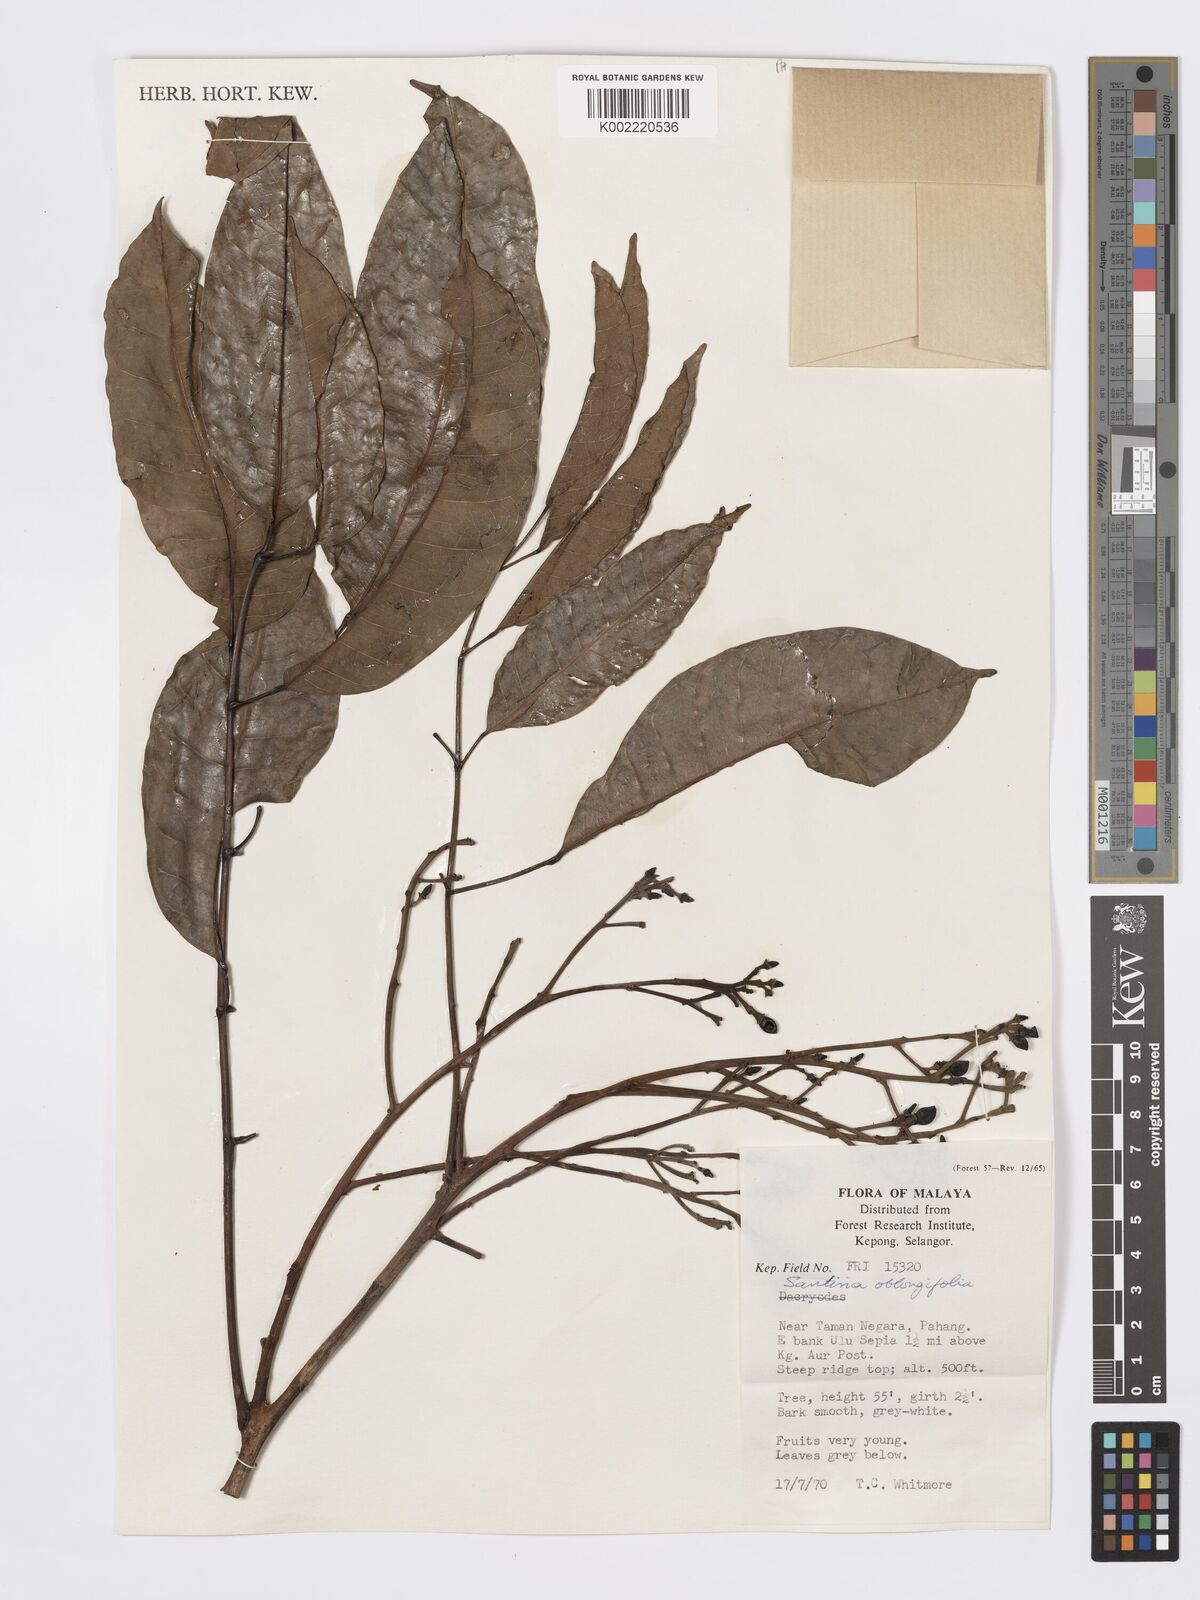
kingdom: Plantae
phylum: Tracheophyta
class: Magnoliopsida
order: Sapindales
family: Burseraceae
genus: Santiria
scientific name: Santiria oblongifolia
